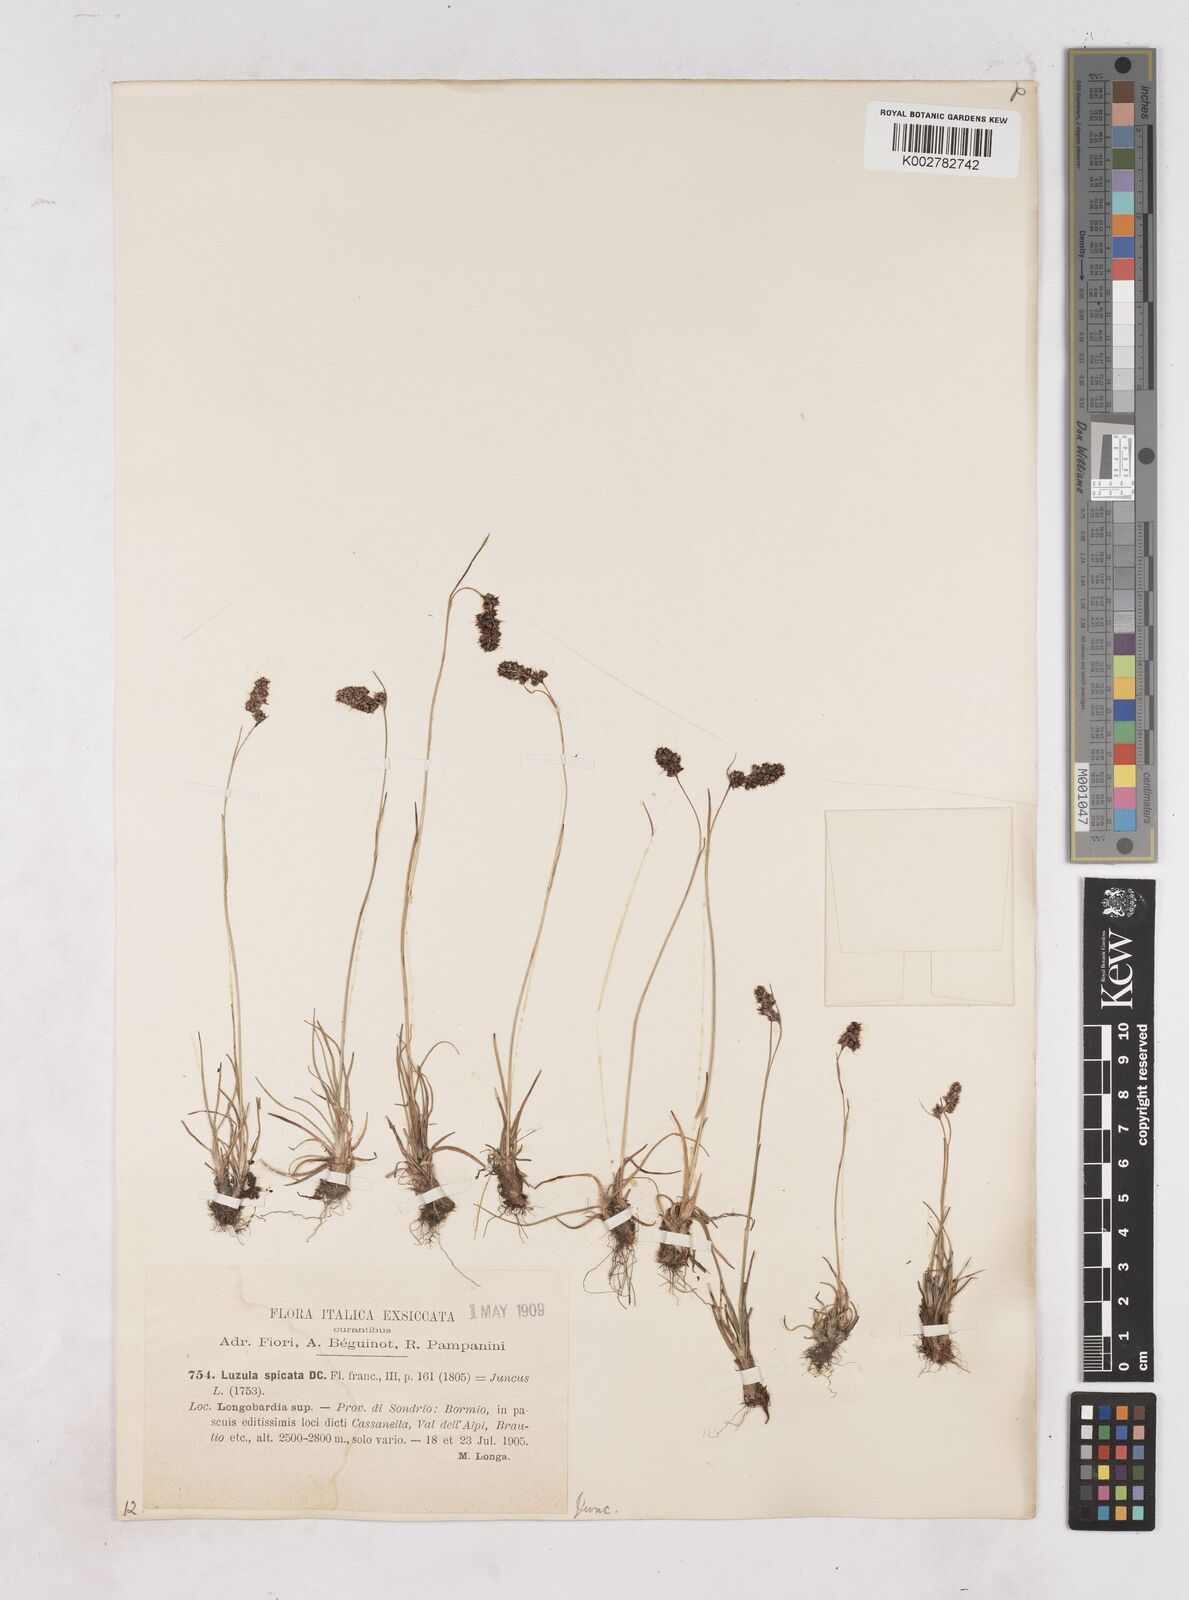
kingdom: Plantae
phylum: Tracheophyta
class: Liliopsida
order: Poales
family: Juncaceae
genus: Luzula
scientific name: Luzula spicata
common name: Spiked wood-rush
